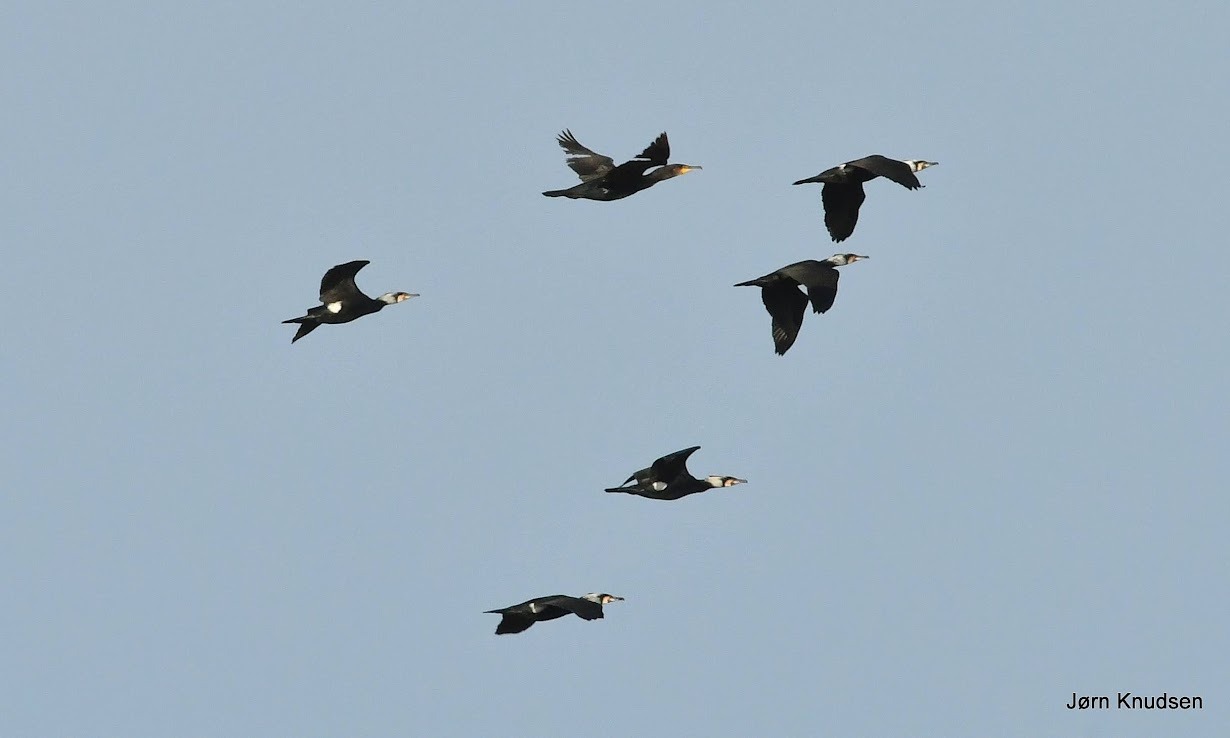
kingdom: Animalia
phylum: Chordata
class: Aves
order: Suliformes
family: Phalacrocoracidae
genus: Phalacrocorax
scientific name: Phalacrocorax carbo
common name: Skarv
